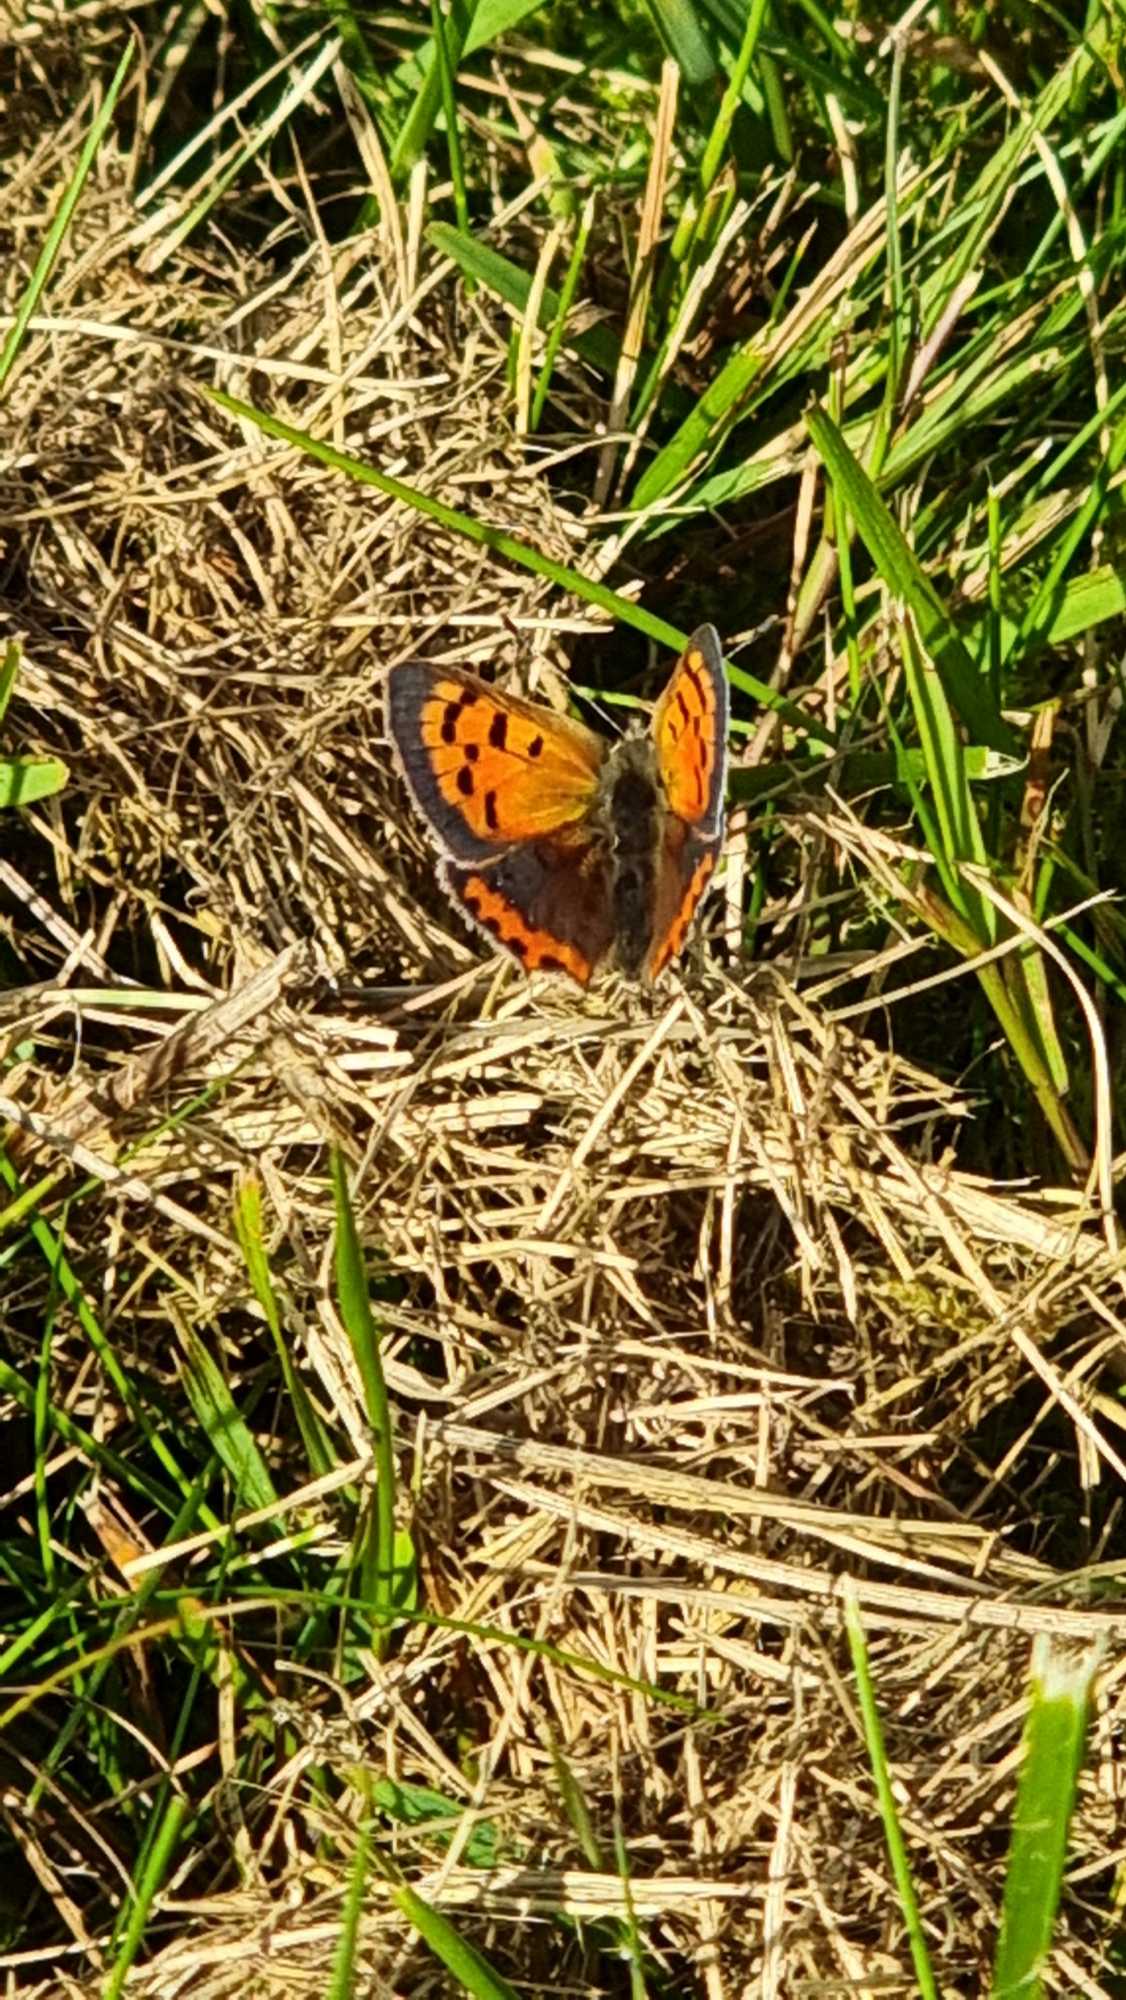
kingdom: Animalia
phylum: Arthropoda
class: Insecta
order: Lepidoptera
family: Lycaenidae
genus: Lycaena
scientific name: Lycaena phlaeas
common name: Lille ildfugl
